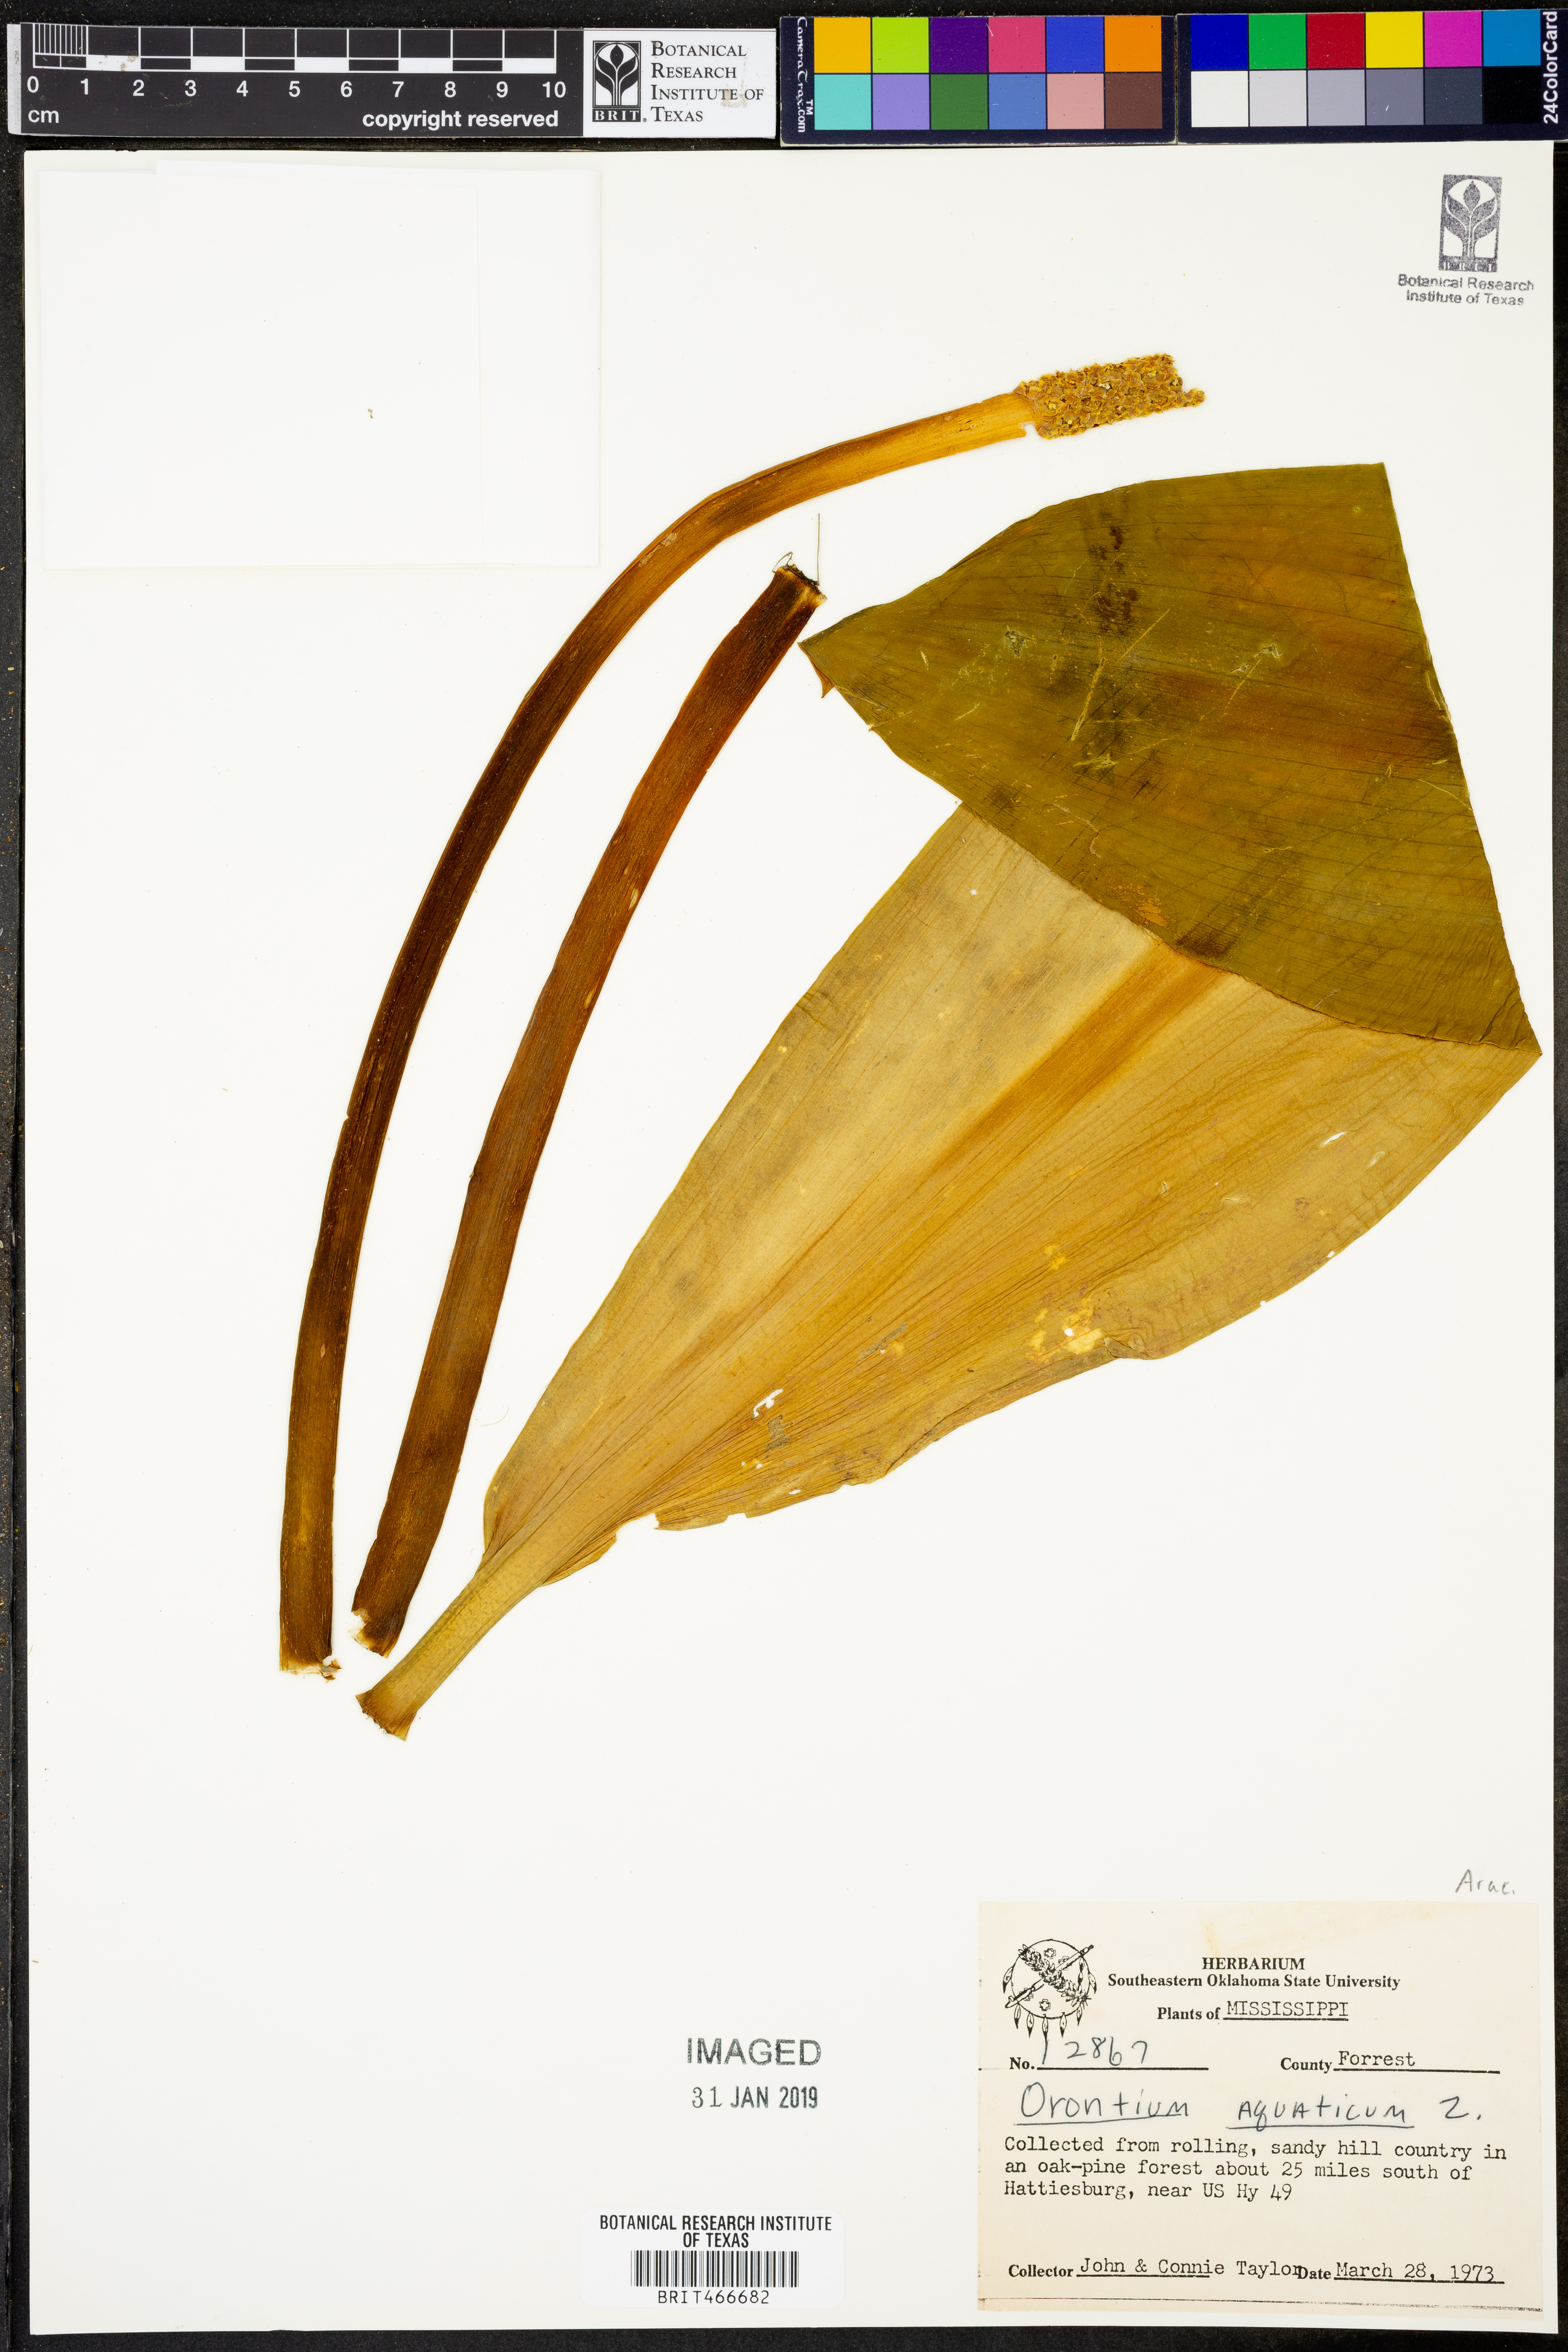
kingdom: Plantae
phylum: Tracheophyta
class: Liliopsida
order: Alismatales
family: Araceae
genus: Orontium
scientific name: Orontium aquaticum
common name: Golden-club
